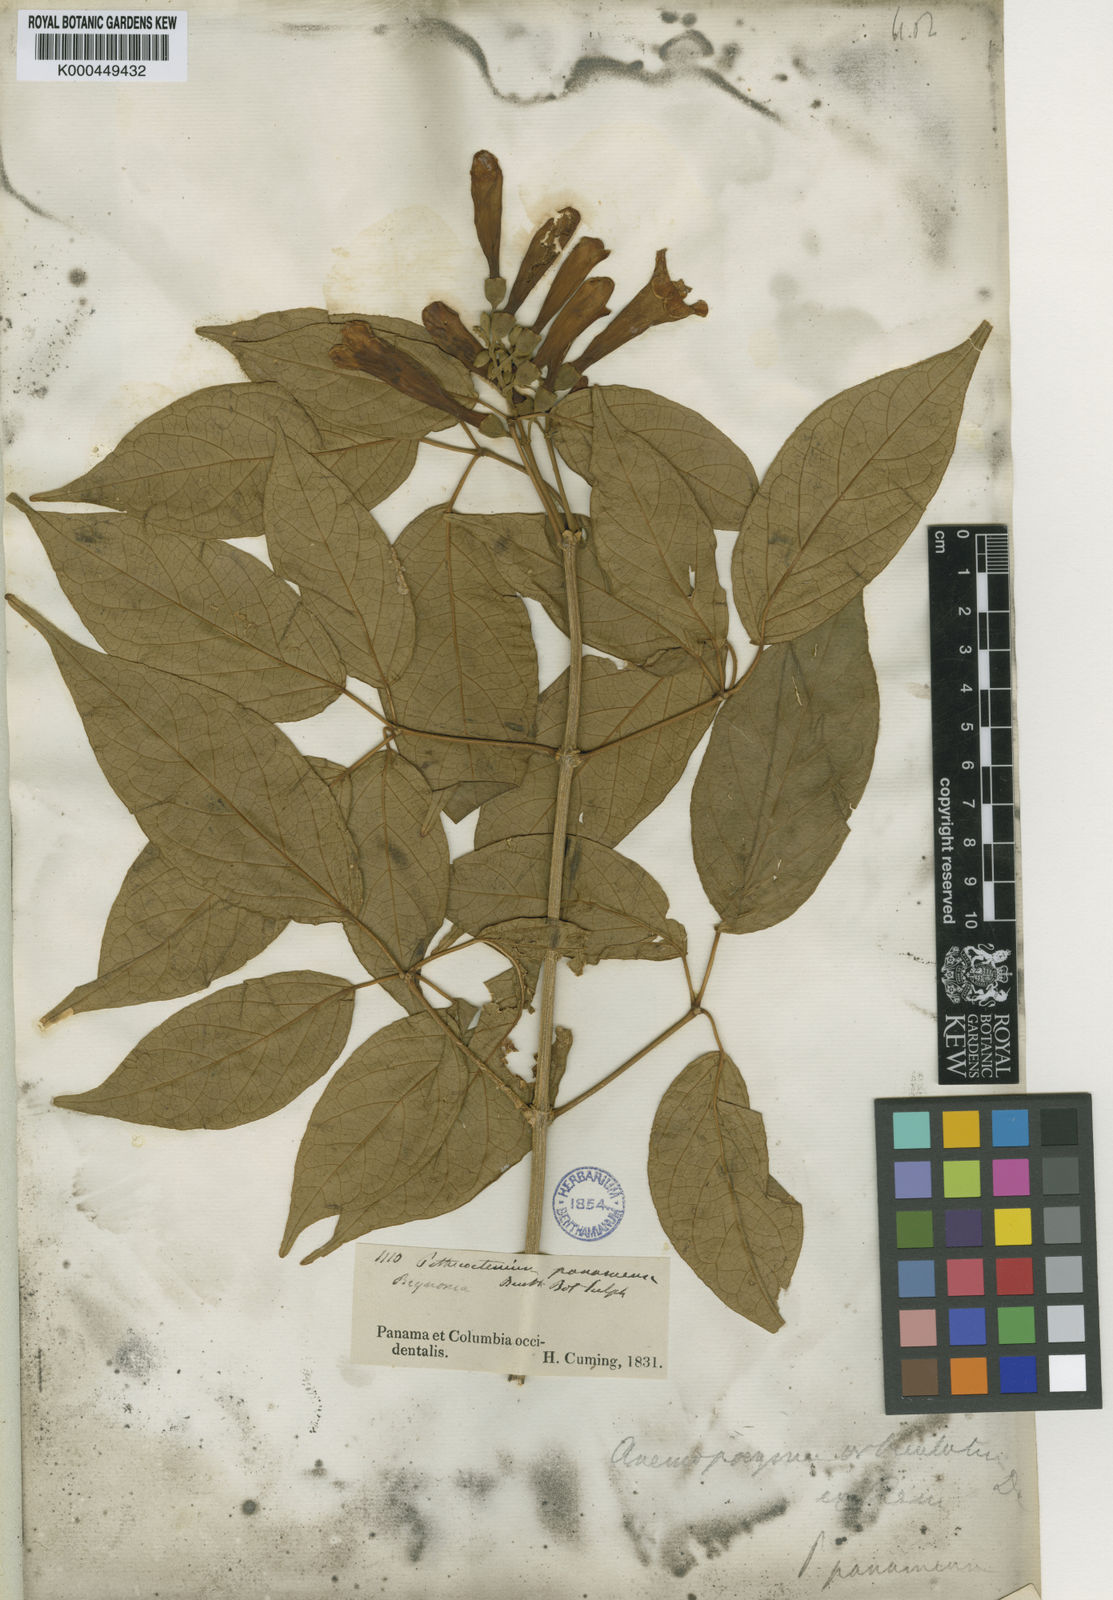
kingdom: Plantae
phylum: Tracheophyta
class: Magnoliopsida
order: Lamiales
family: Bignoniaceae
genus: Anemopaegma
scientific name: Anemopaegma orbiculatum
